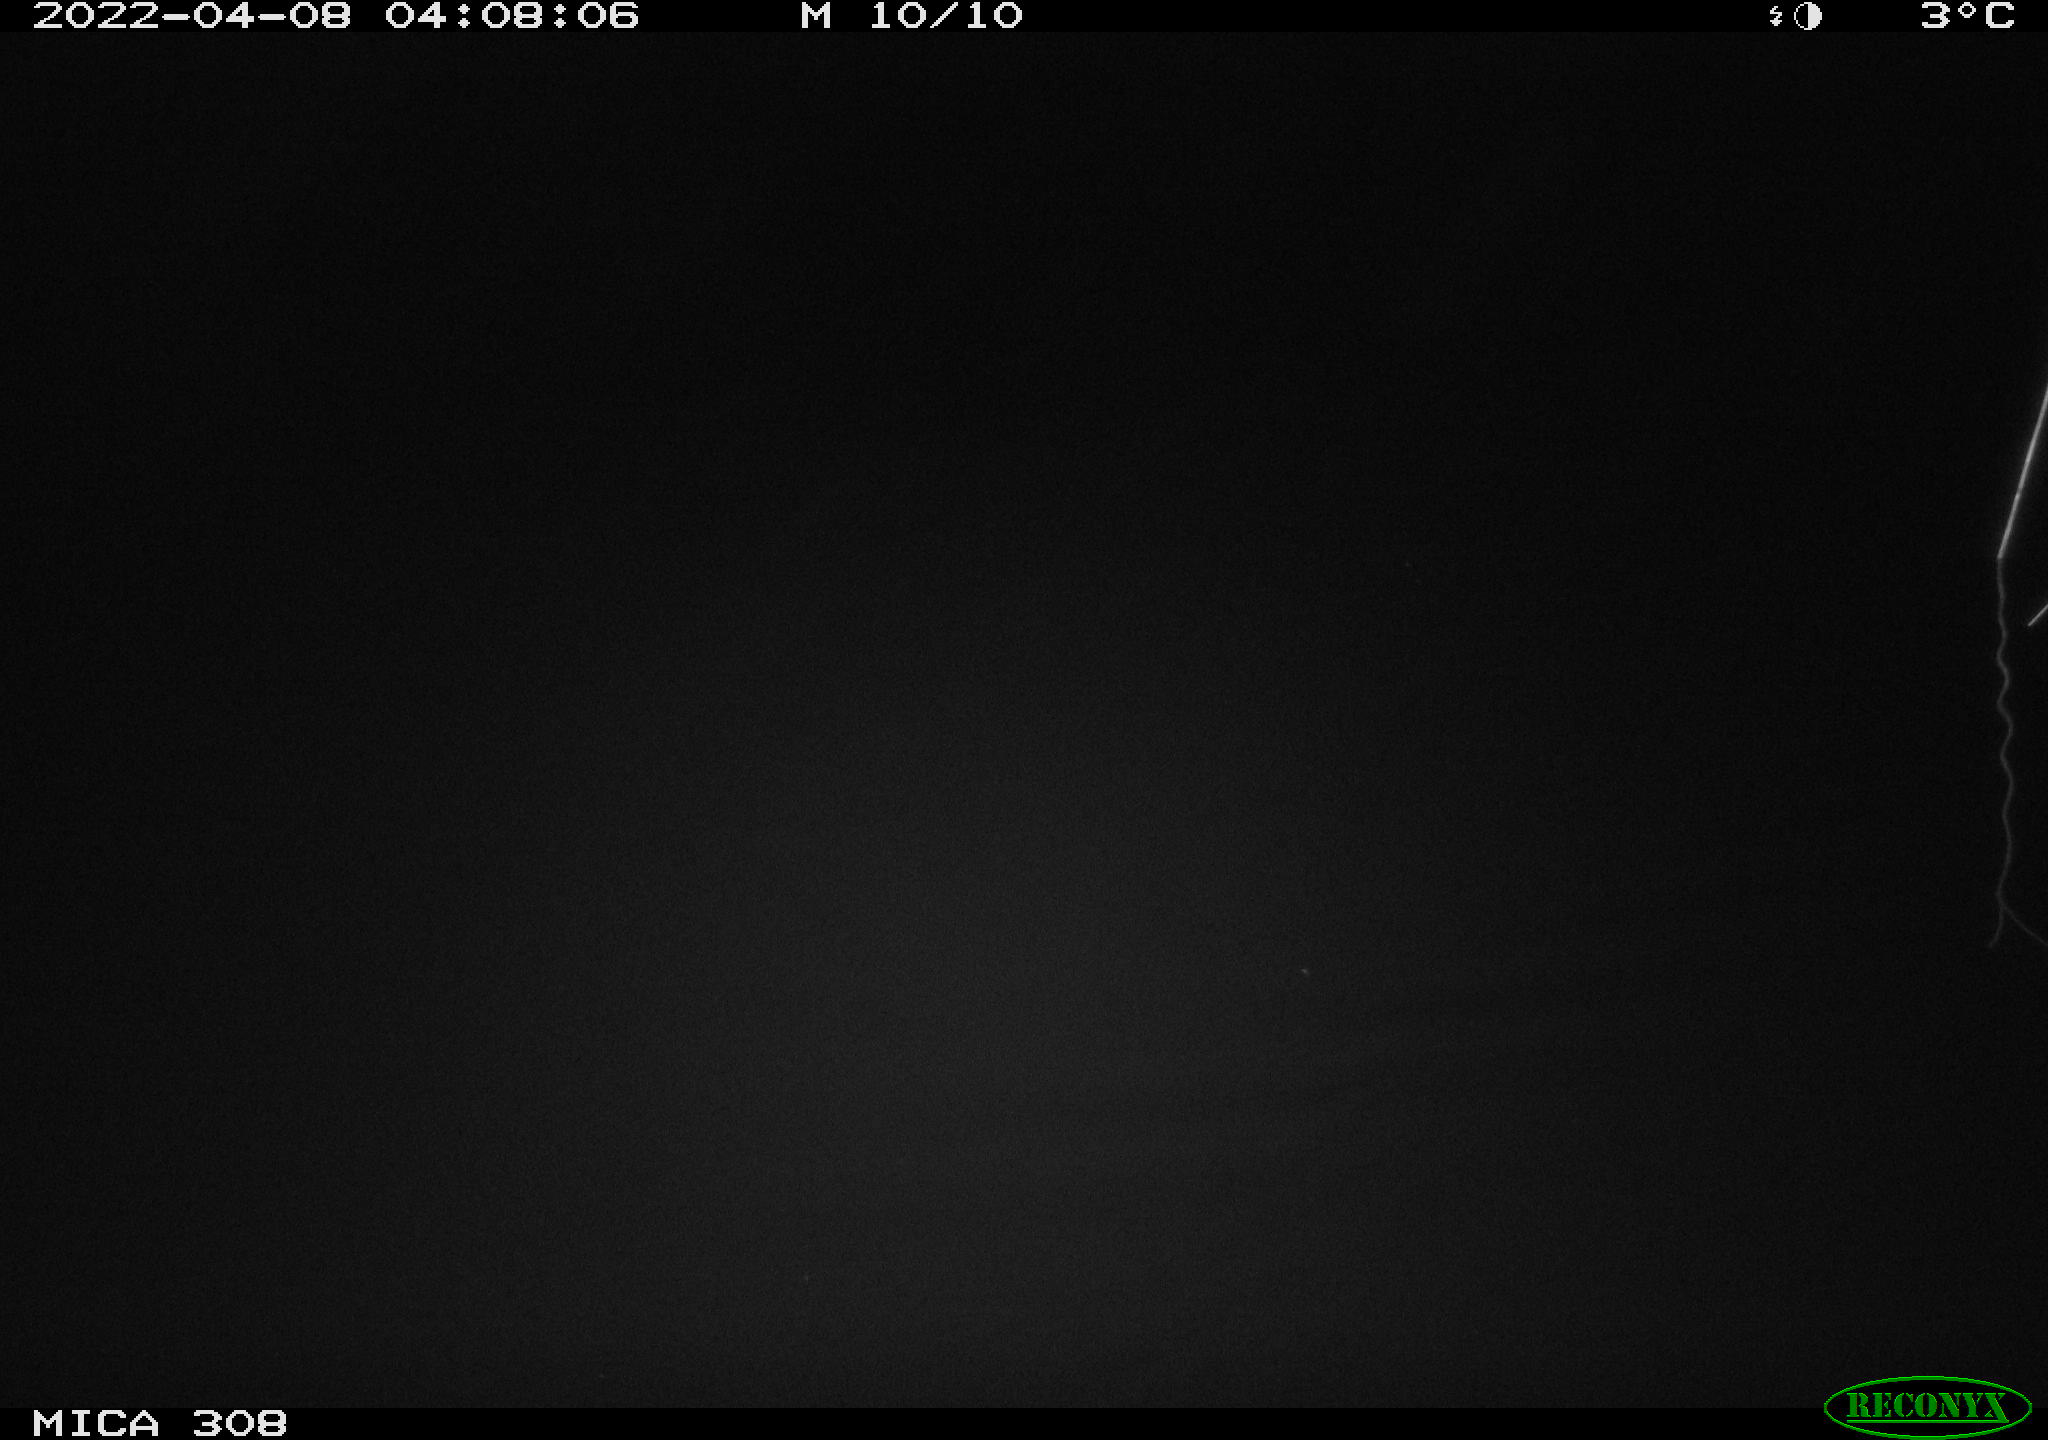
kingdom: Animalia
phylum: Chordata
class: Aves
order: Anseriformes
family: Anatidae
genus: Anas
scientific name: Anas platyrhynchos
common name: Mallard
